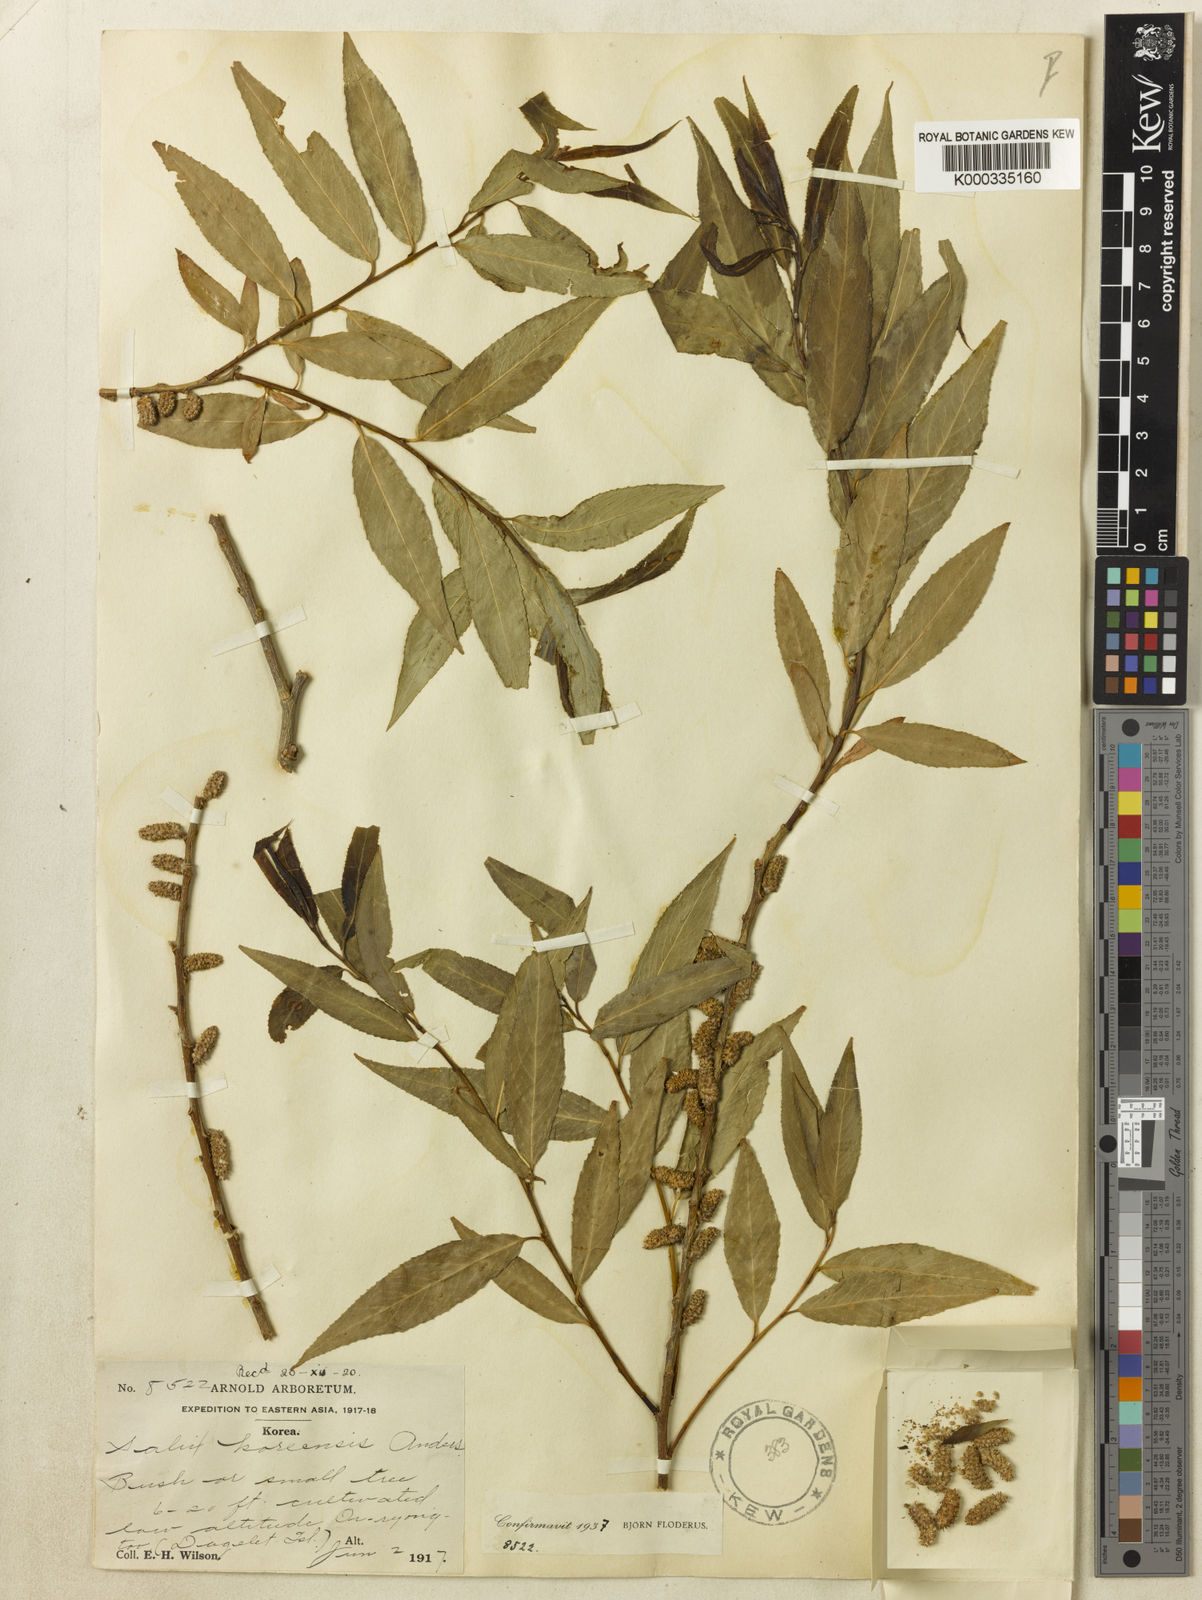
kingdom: Plantae
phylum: Tracheophyta
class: Magnoliopsida
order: Malpighiales
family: Salicaceae
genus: Salix
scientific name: Salix pierotii
